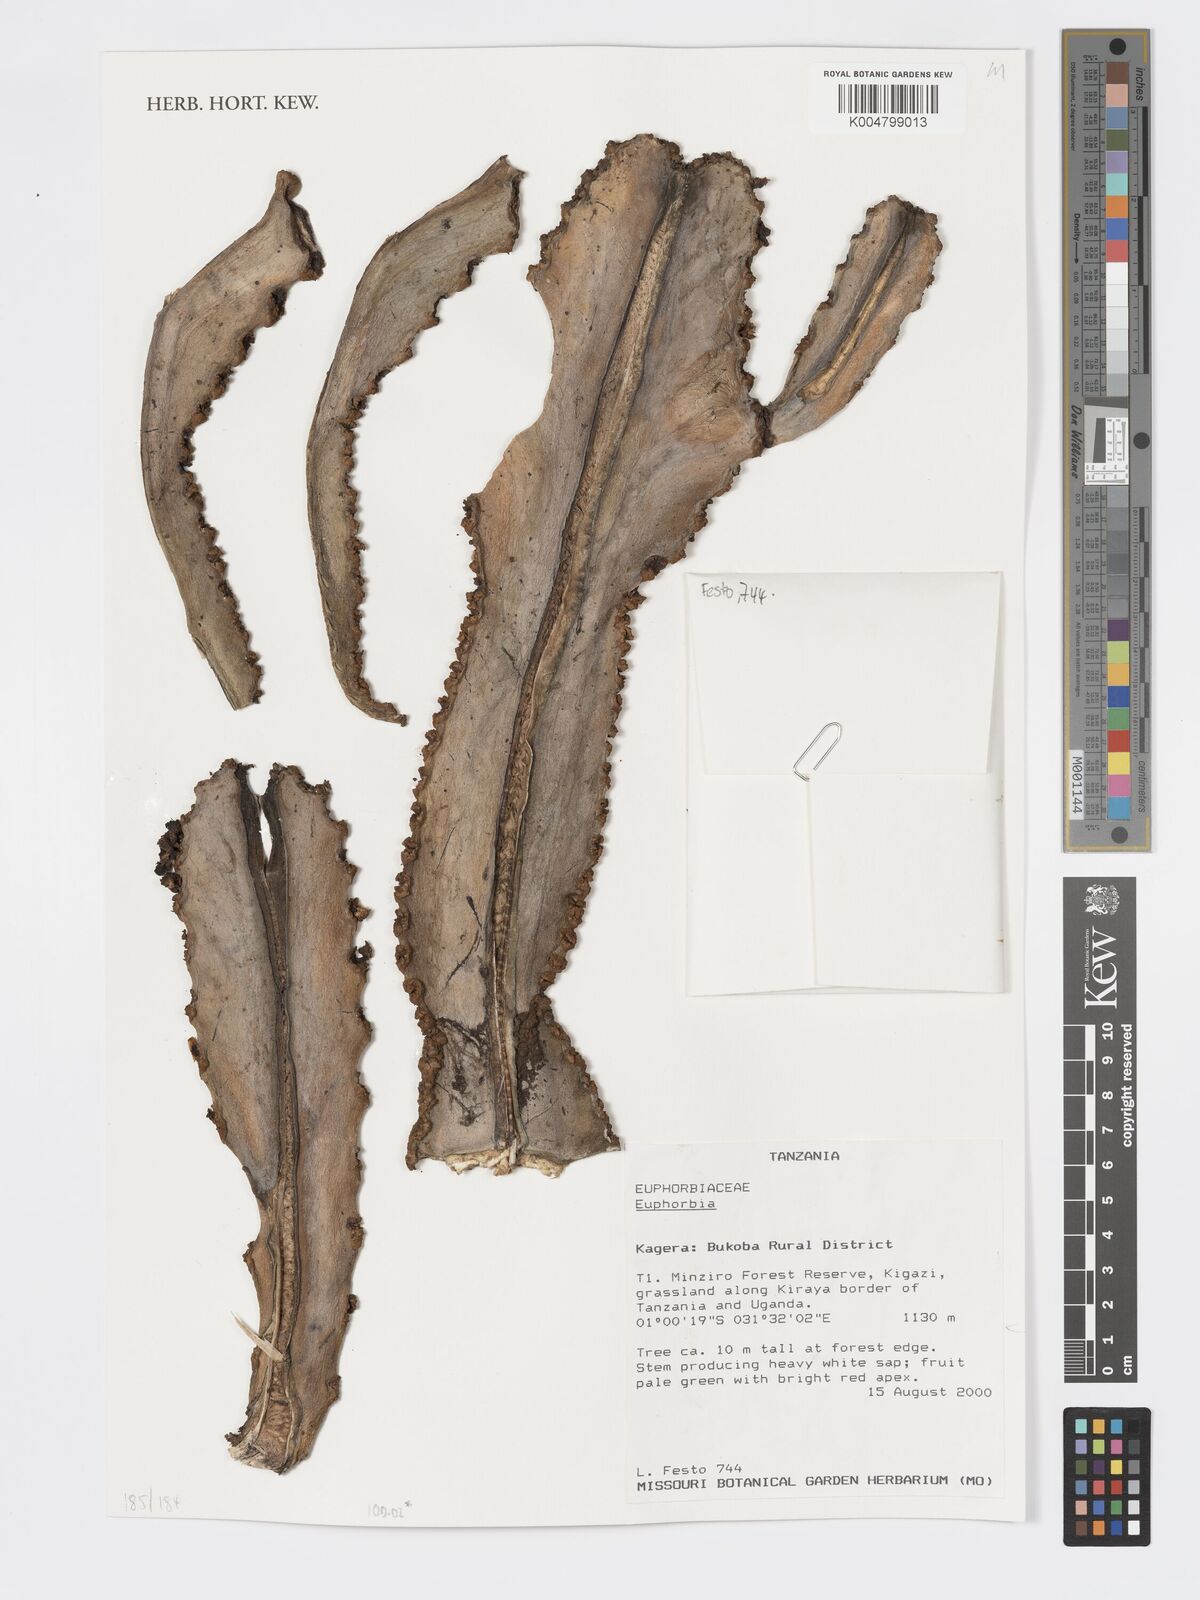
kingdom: Plantae
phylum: Tracheophyta
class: Magnoliopsida
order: Malpighiales
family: Euphorbiaceae
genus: Euphorbia
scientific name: Euphorbia
